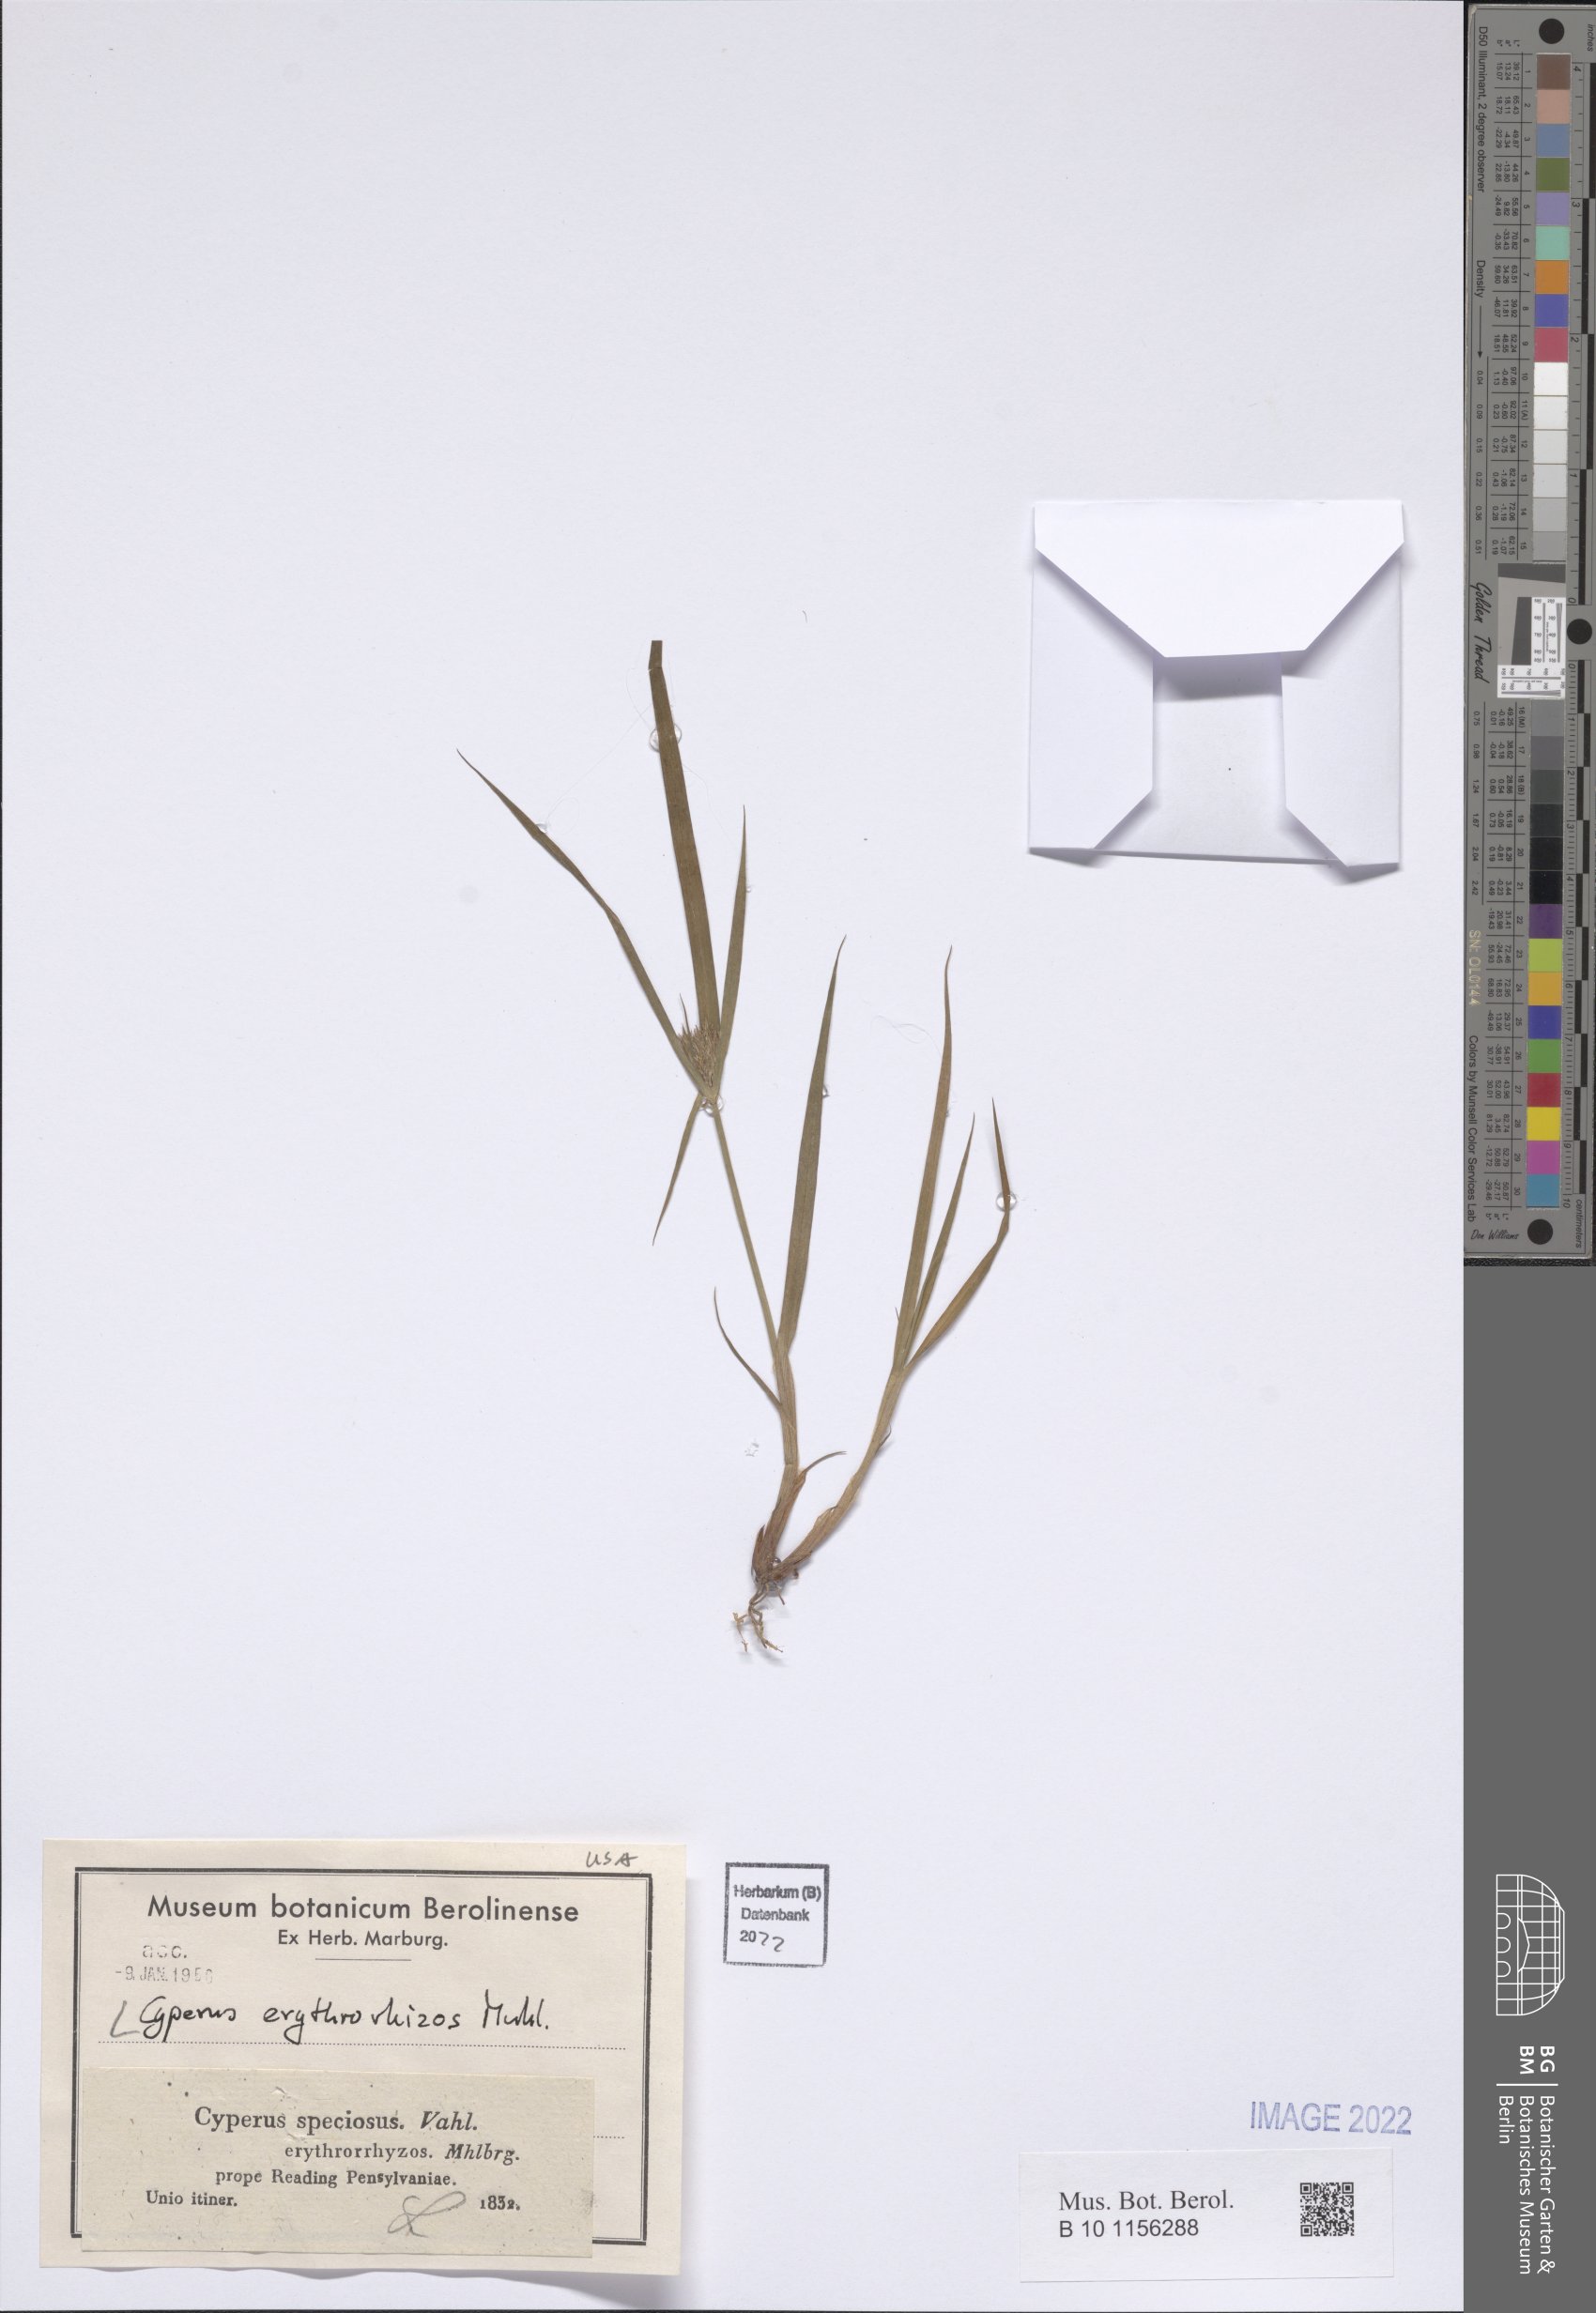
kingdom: Plantae
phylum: Tracheophyta
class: Liliopsida
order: Poales
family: Cyperaceae
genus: Cyperus
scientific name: Cyperus erythrorhizos
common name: Red-root flat sedge
